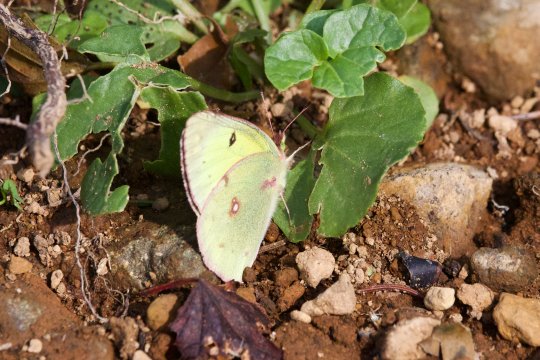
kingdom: Animalia
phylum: Arthropoda
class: Insecta
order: Lepidoptera
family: Pieridae
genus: Colias
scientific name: Colias philodice
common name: Clouded Sulphur
